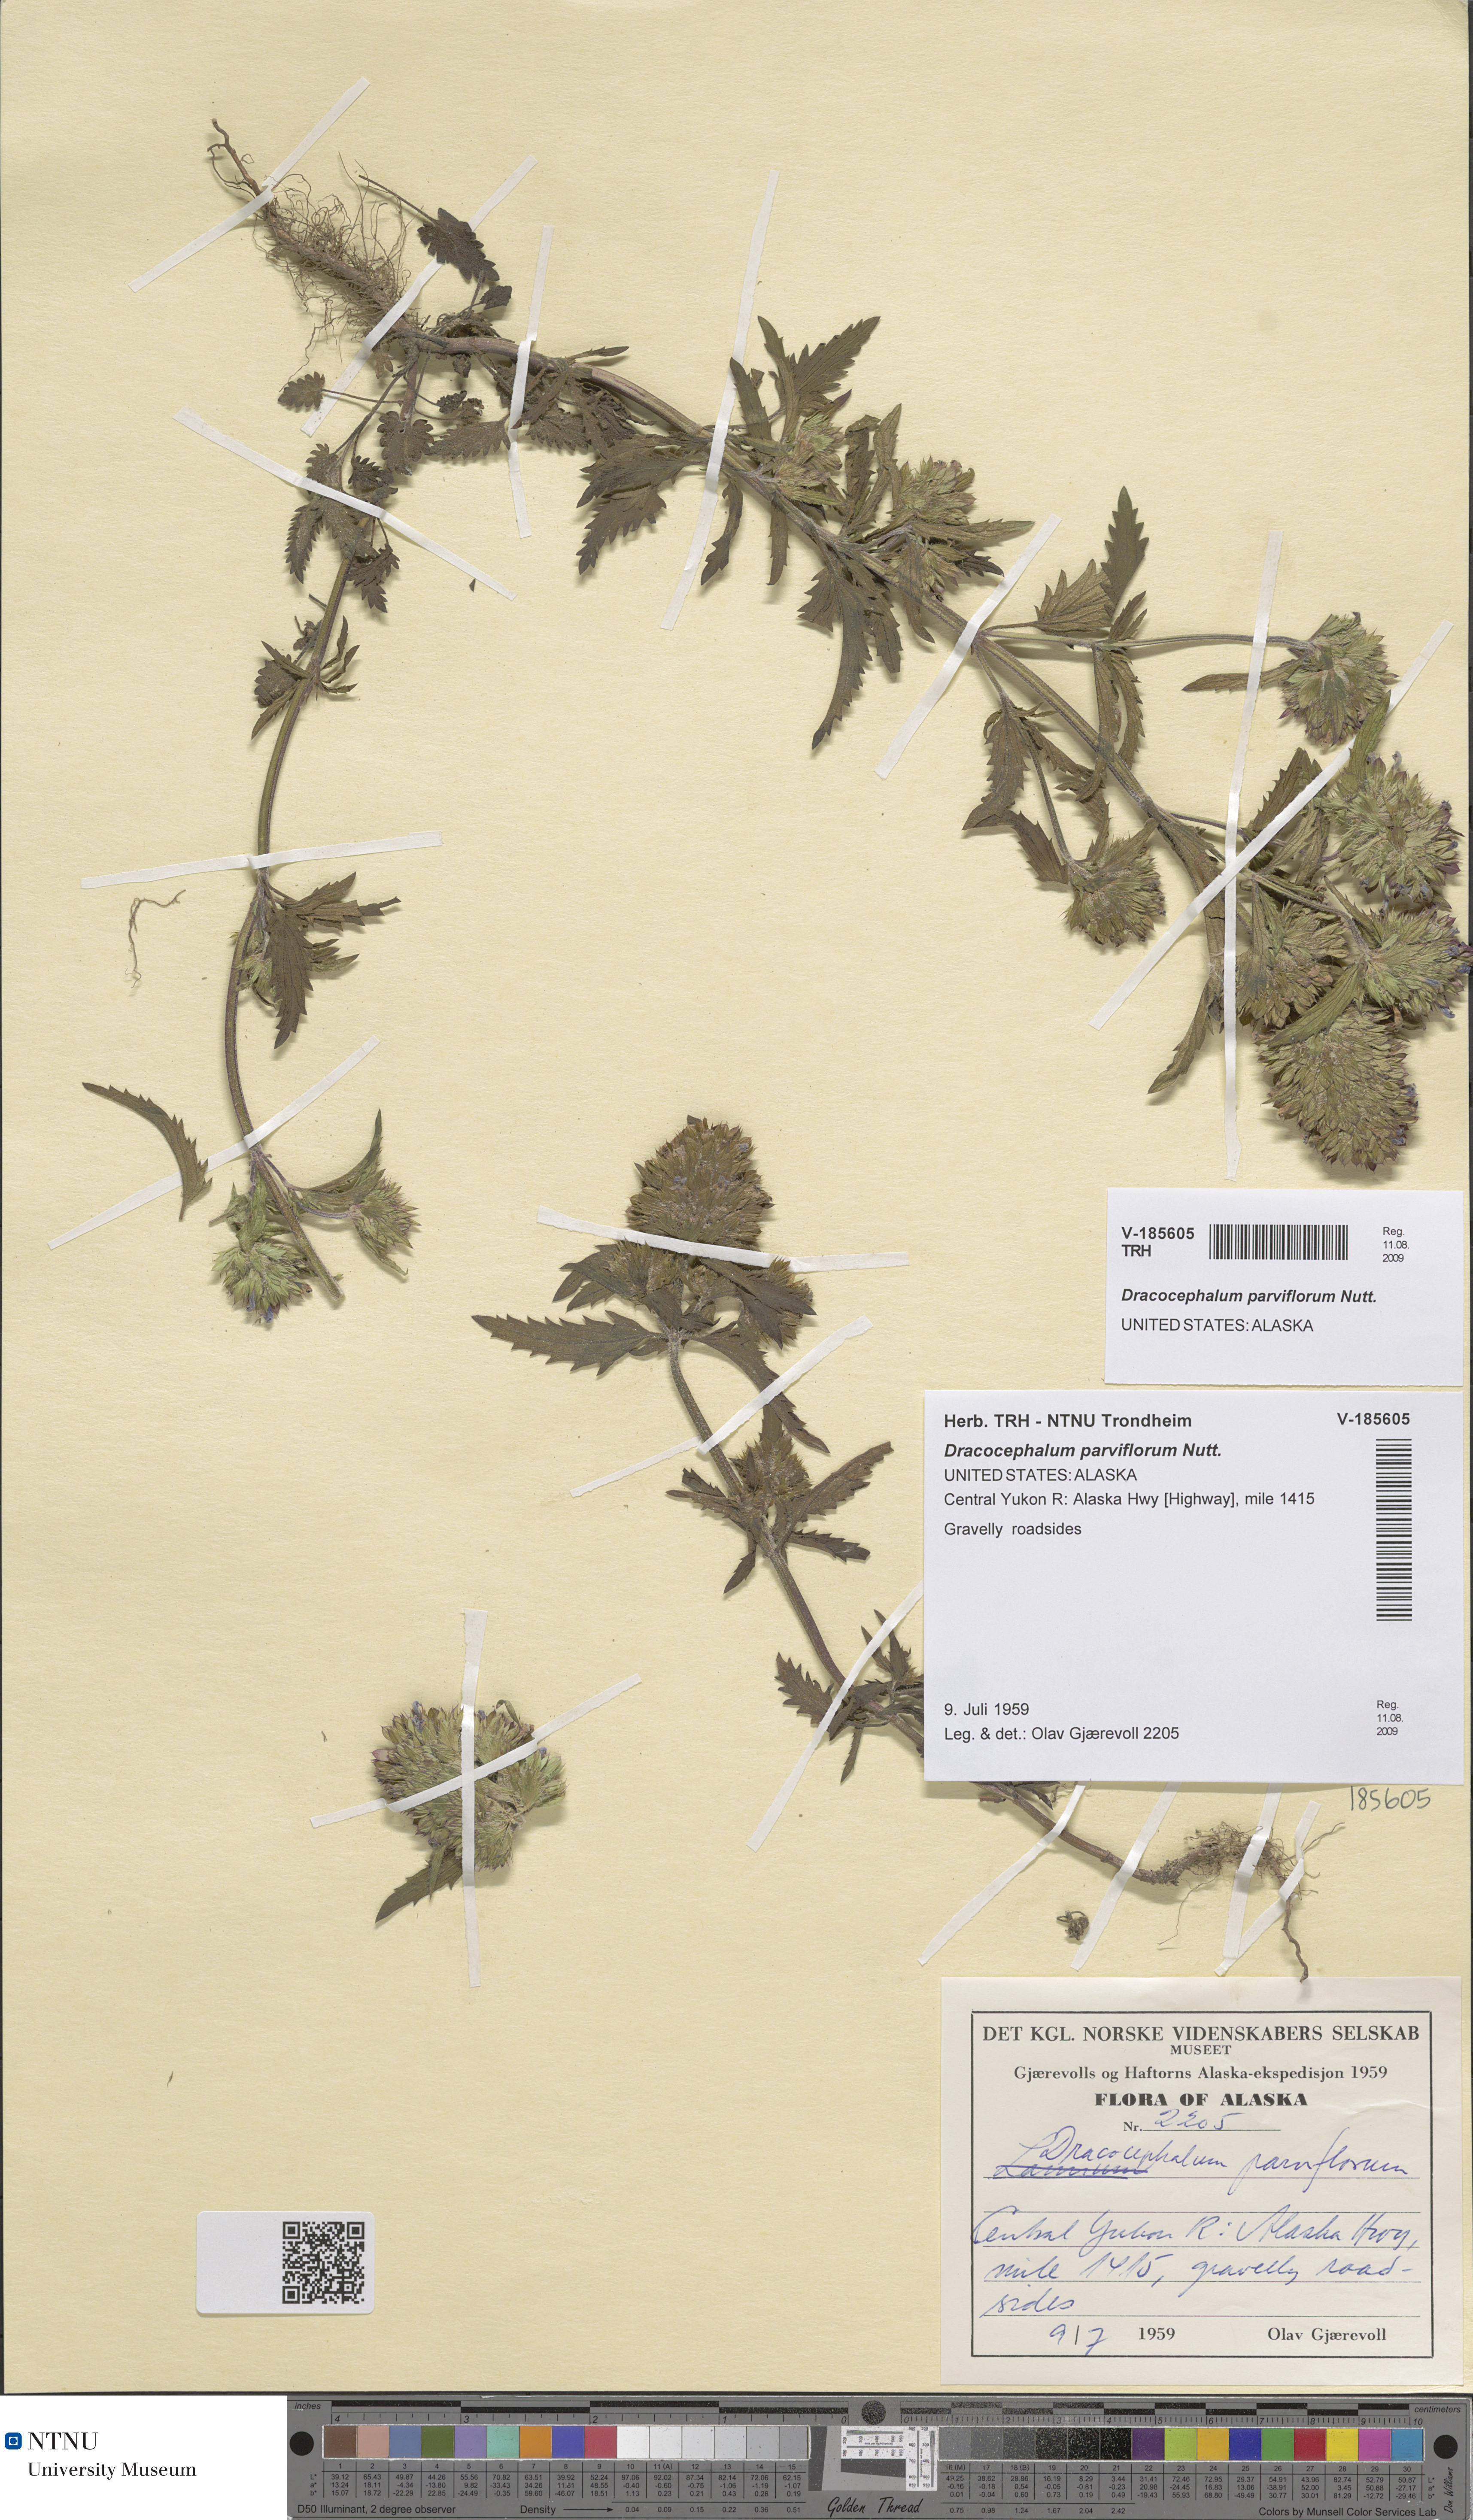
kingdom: Plantae
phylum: Tracheophyta
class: Magnoliopsida
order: Lamiales
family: Lamiaceae
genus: Dracocephalum
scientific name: Dracocephalum parviflorum
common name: American dragonhead
